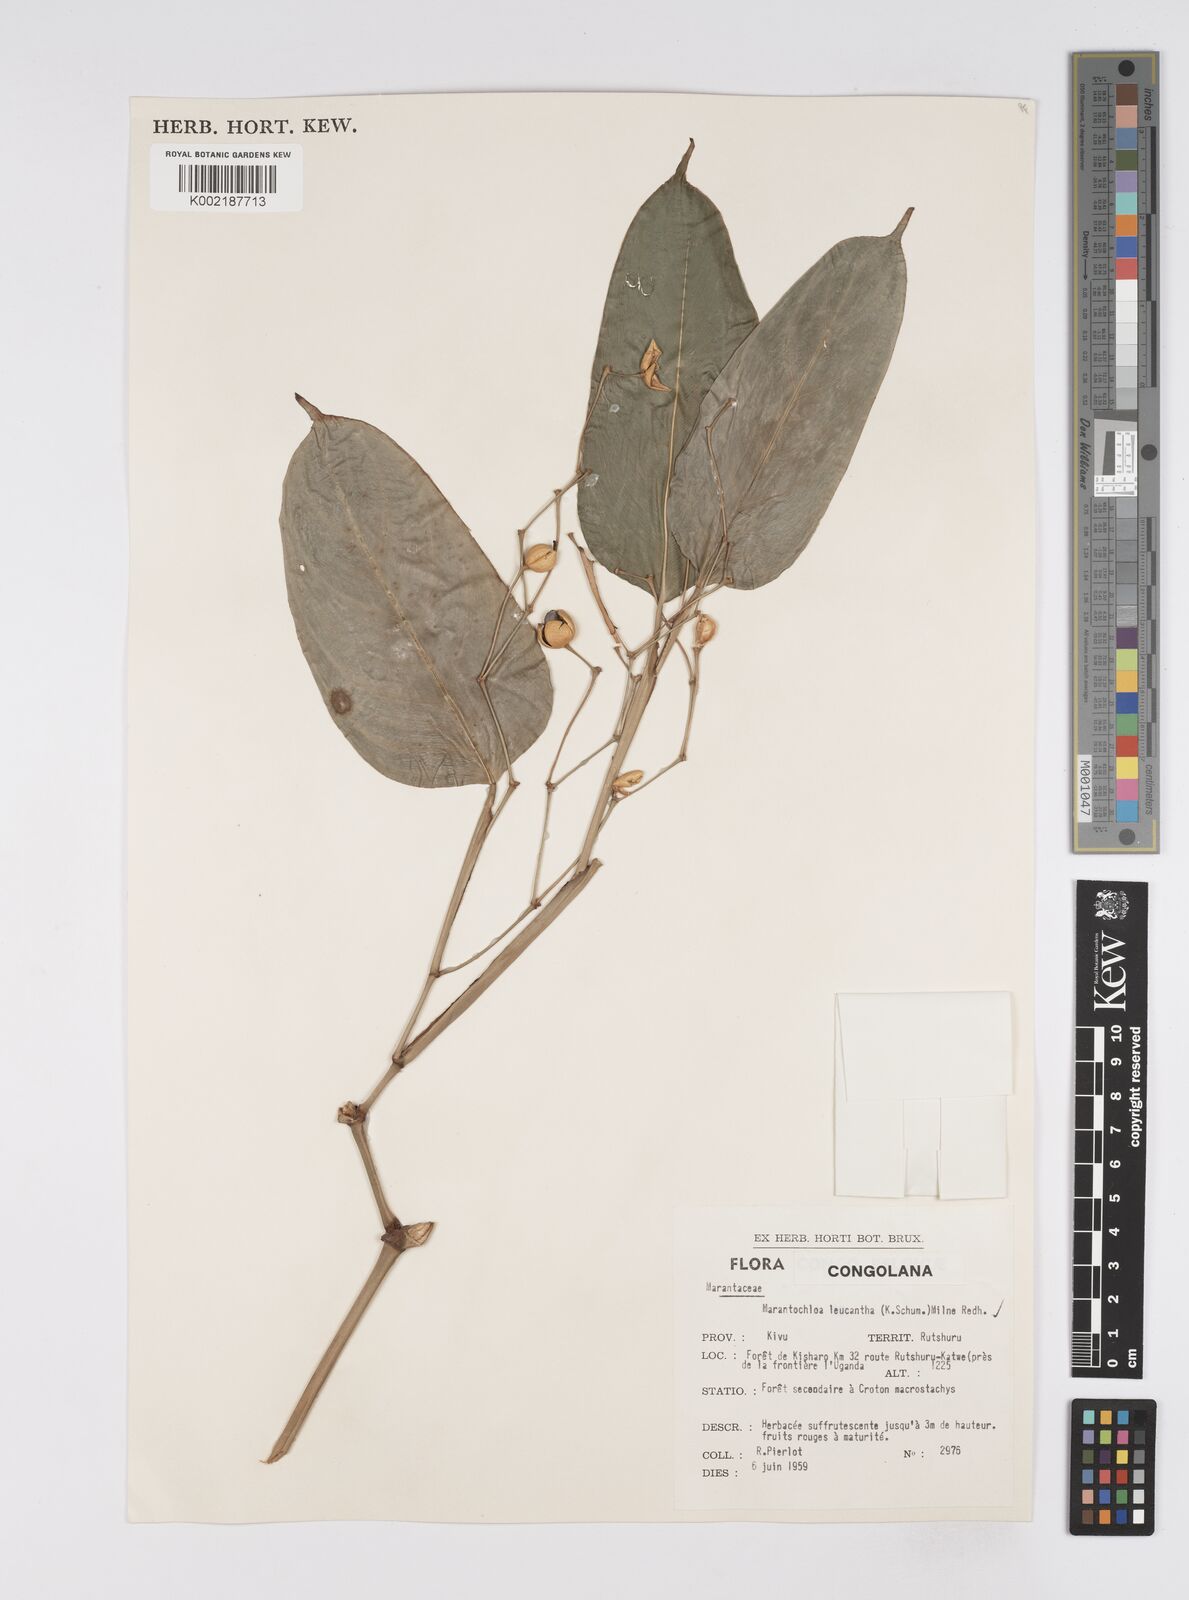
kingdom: Plantae
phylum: Tracheophyta
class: Liliopsida
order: Zingiberales
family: Marantaceae
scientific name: Marantaceae
